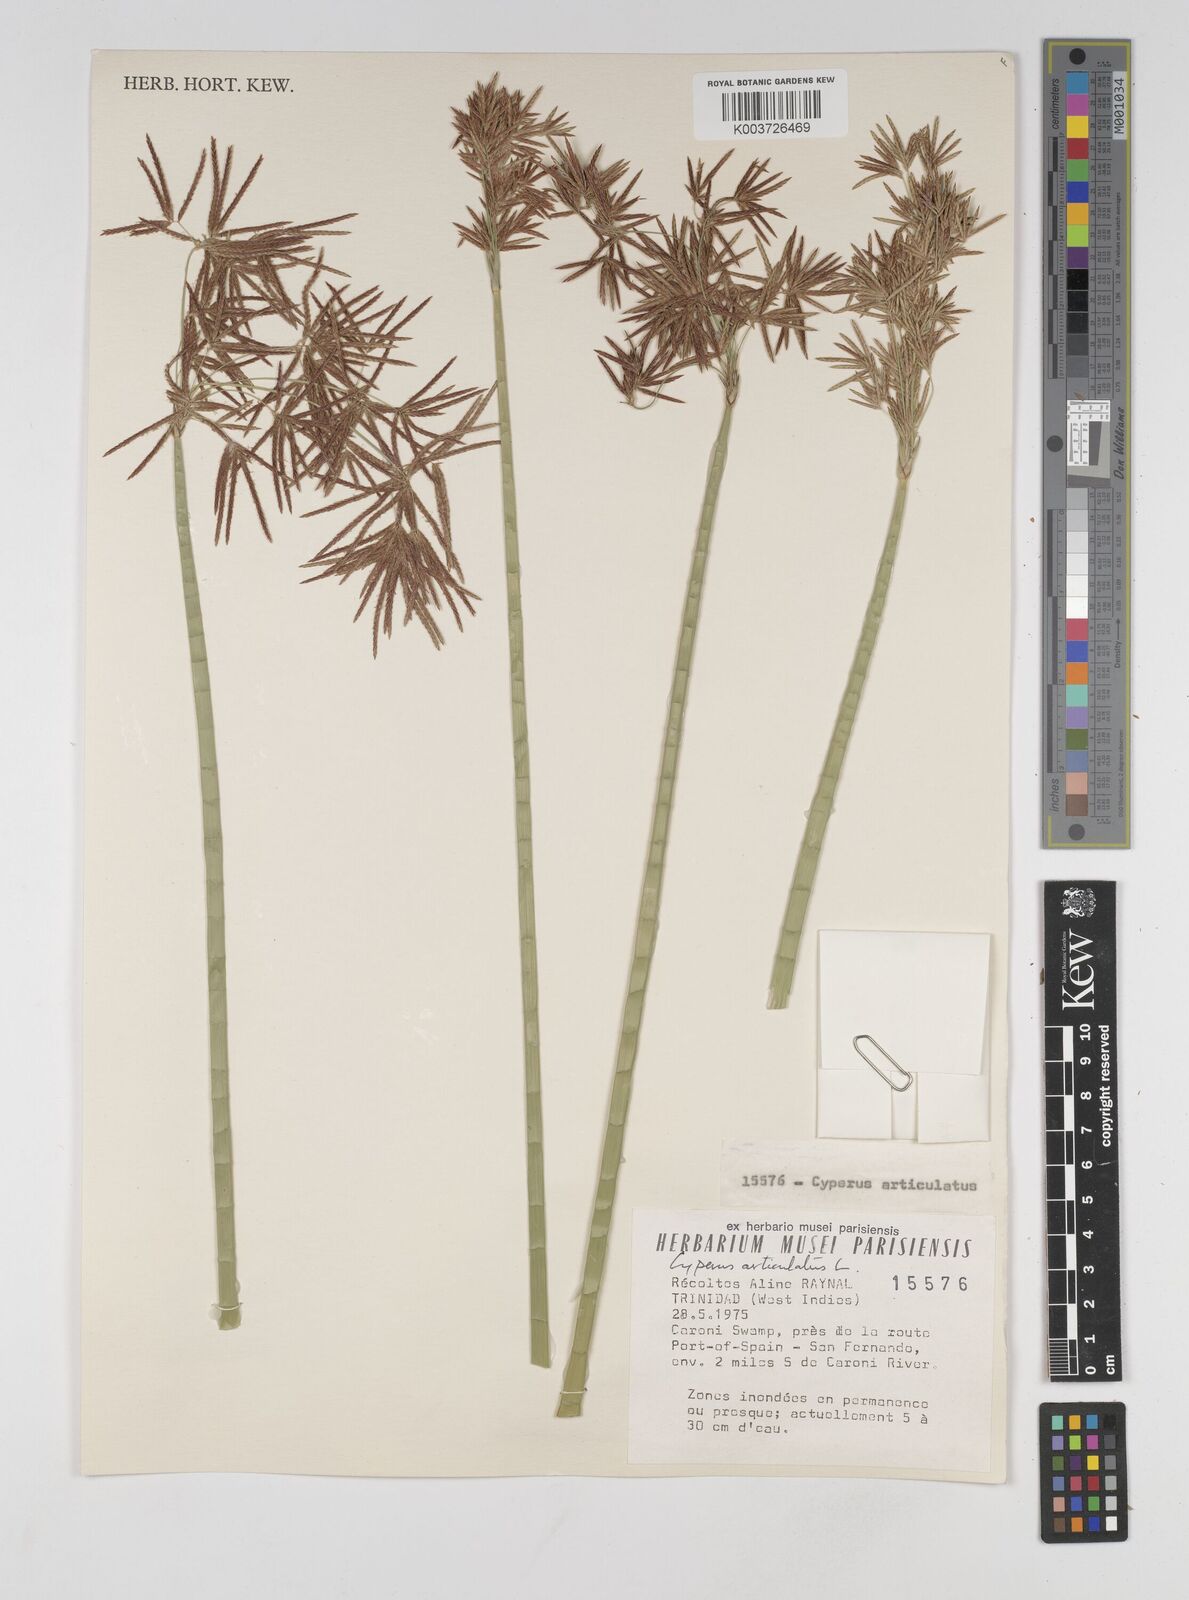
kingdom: Plantae
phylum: Tracheophyta
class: Liliopsida
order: Poales
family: Cyperaceae
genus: Cyperus
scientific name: Cyperus articulatus
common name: Jointed flatsedge
